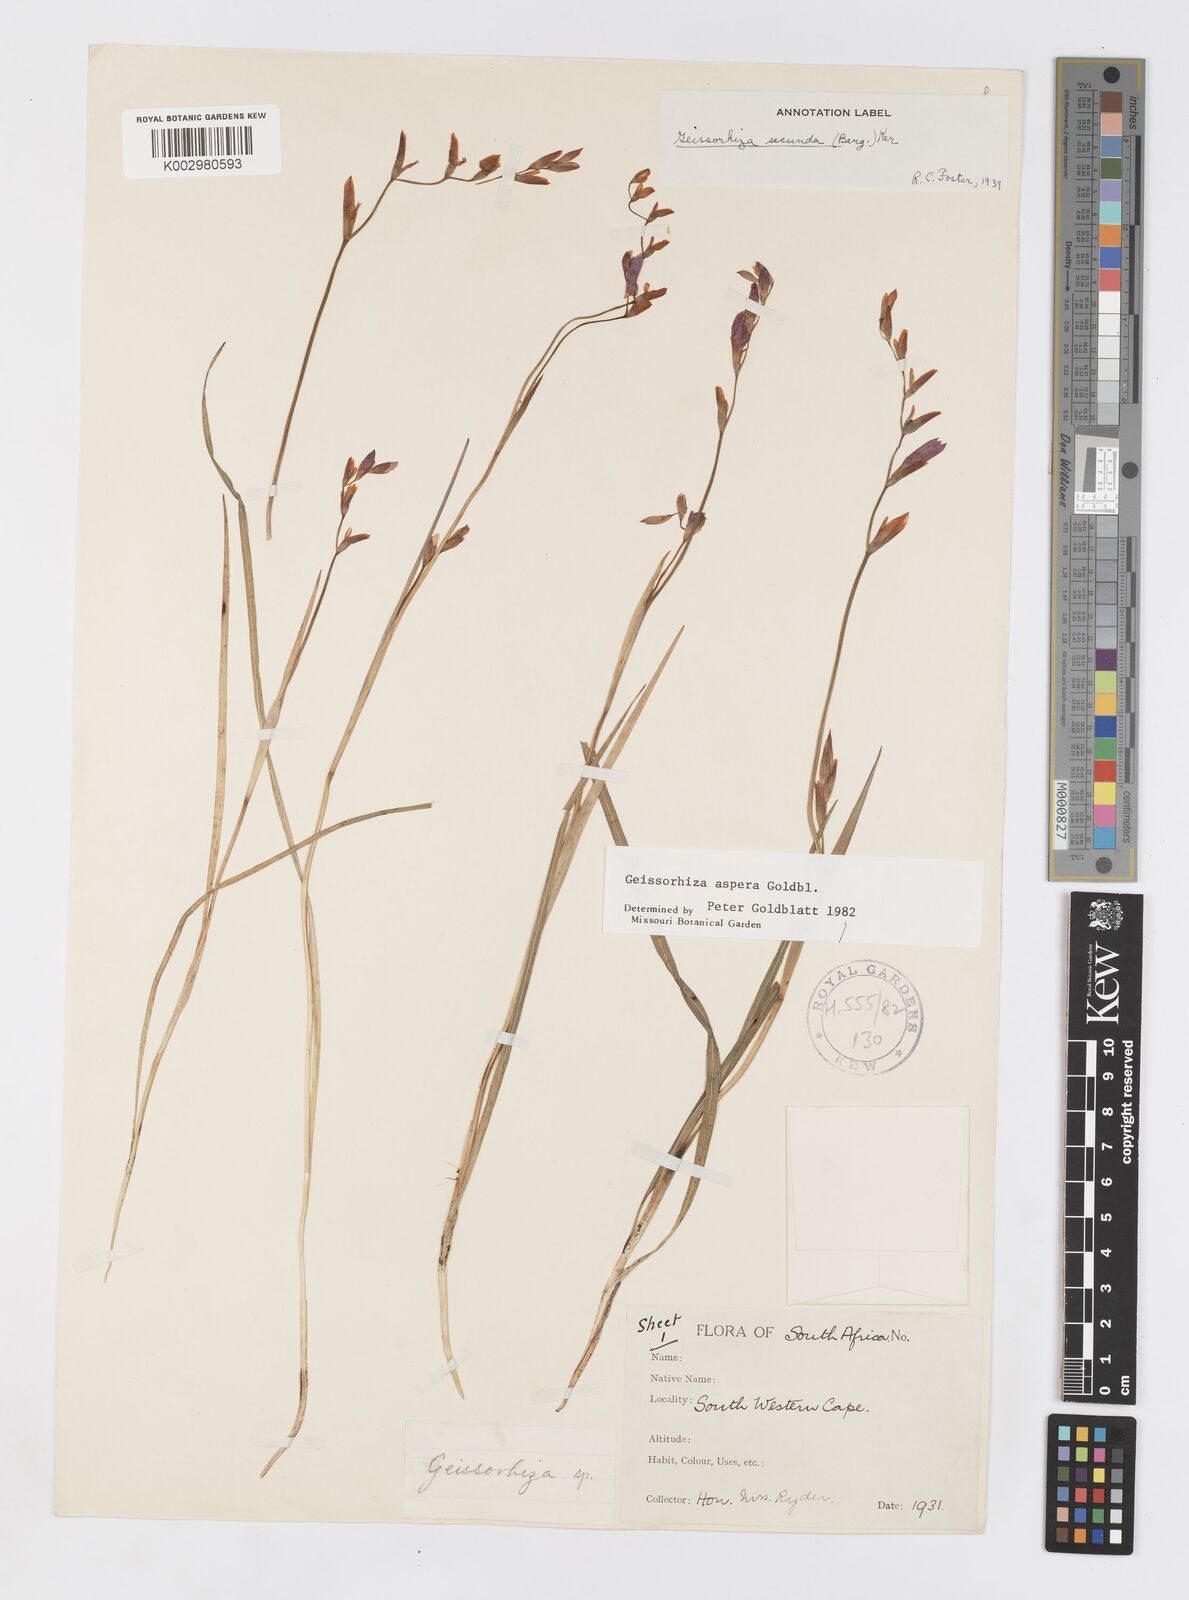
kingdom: Plantae
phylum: Tracheophyta
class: Liliopsida
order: Asparagales
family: Iridaceae
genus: Geissorhiza
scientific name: Geissorhiza aspera
